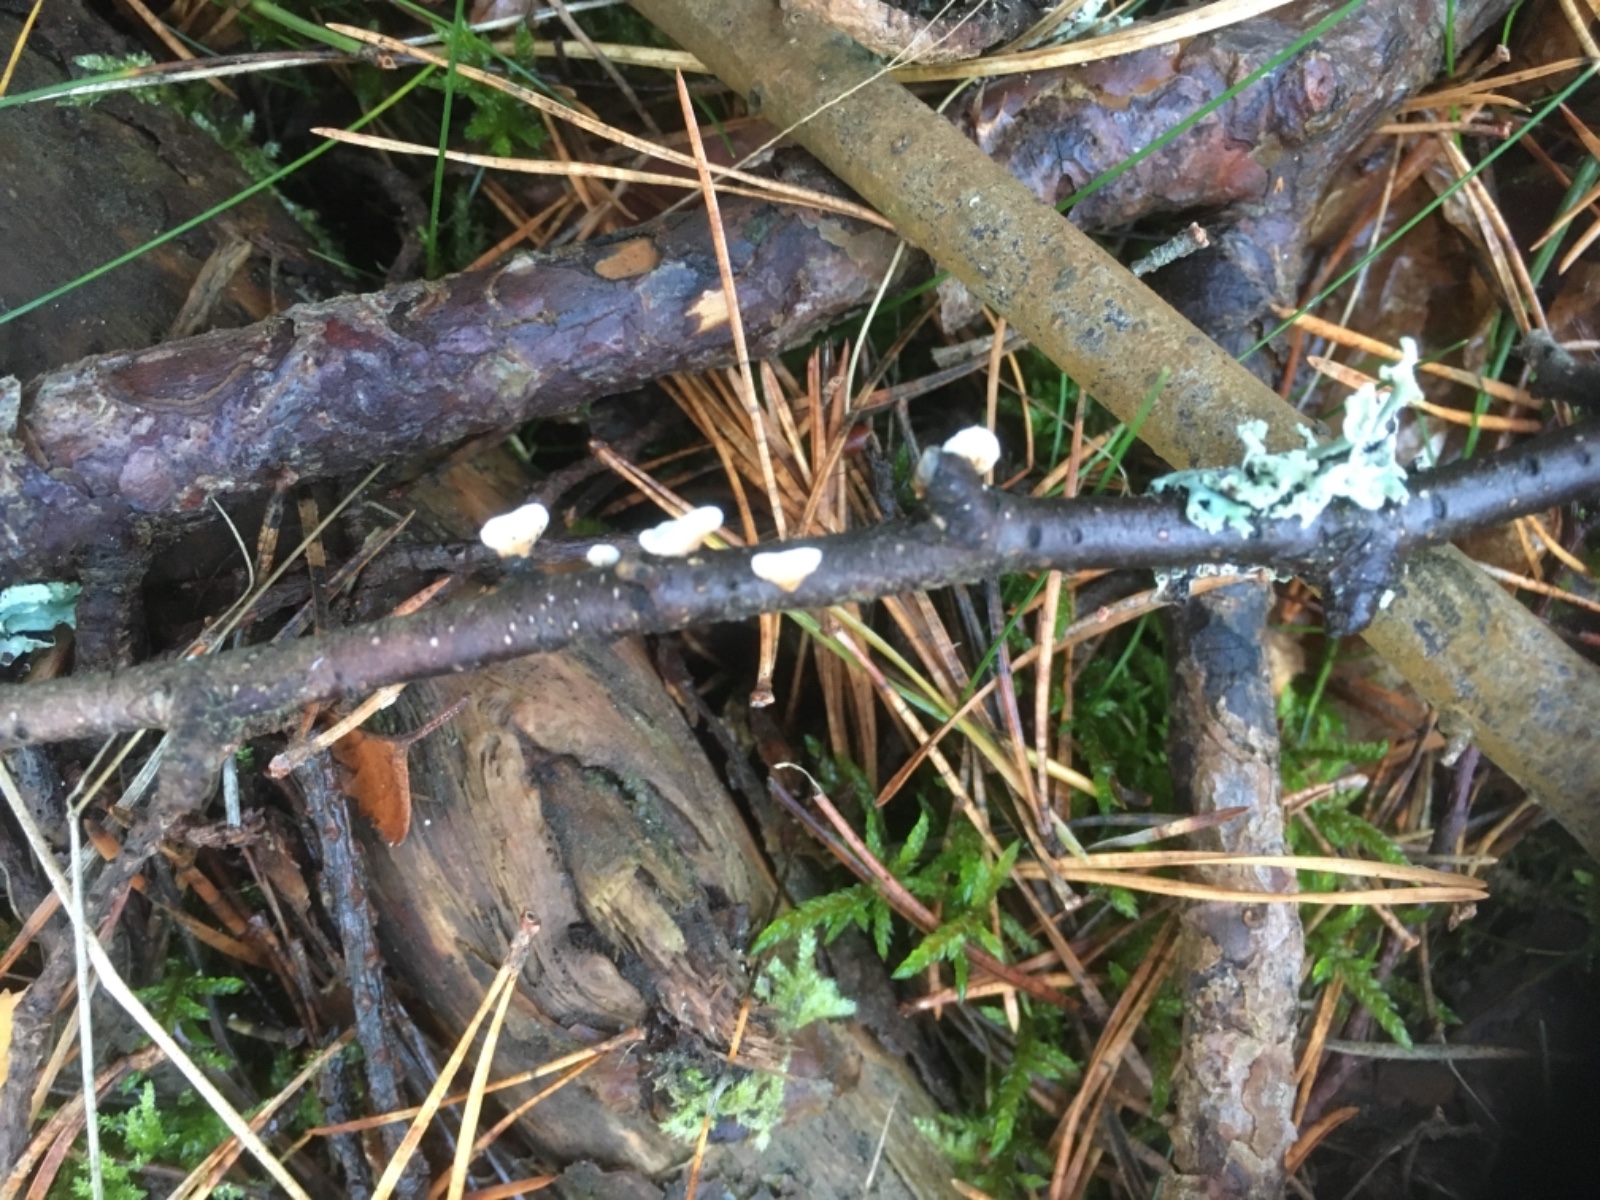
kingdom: Fungi
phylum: Basidiomycota
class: Agaricomycetes
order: Amylocorticiales
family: Amylocorticiaceae
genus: Plicaturopsis
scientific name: Plicaturopsis crispa
